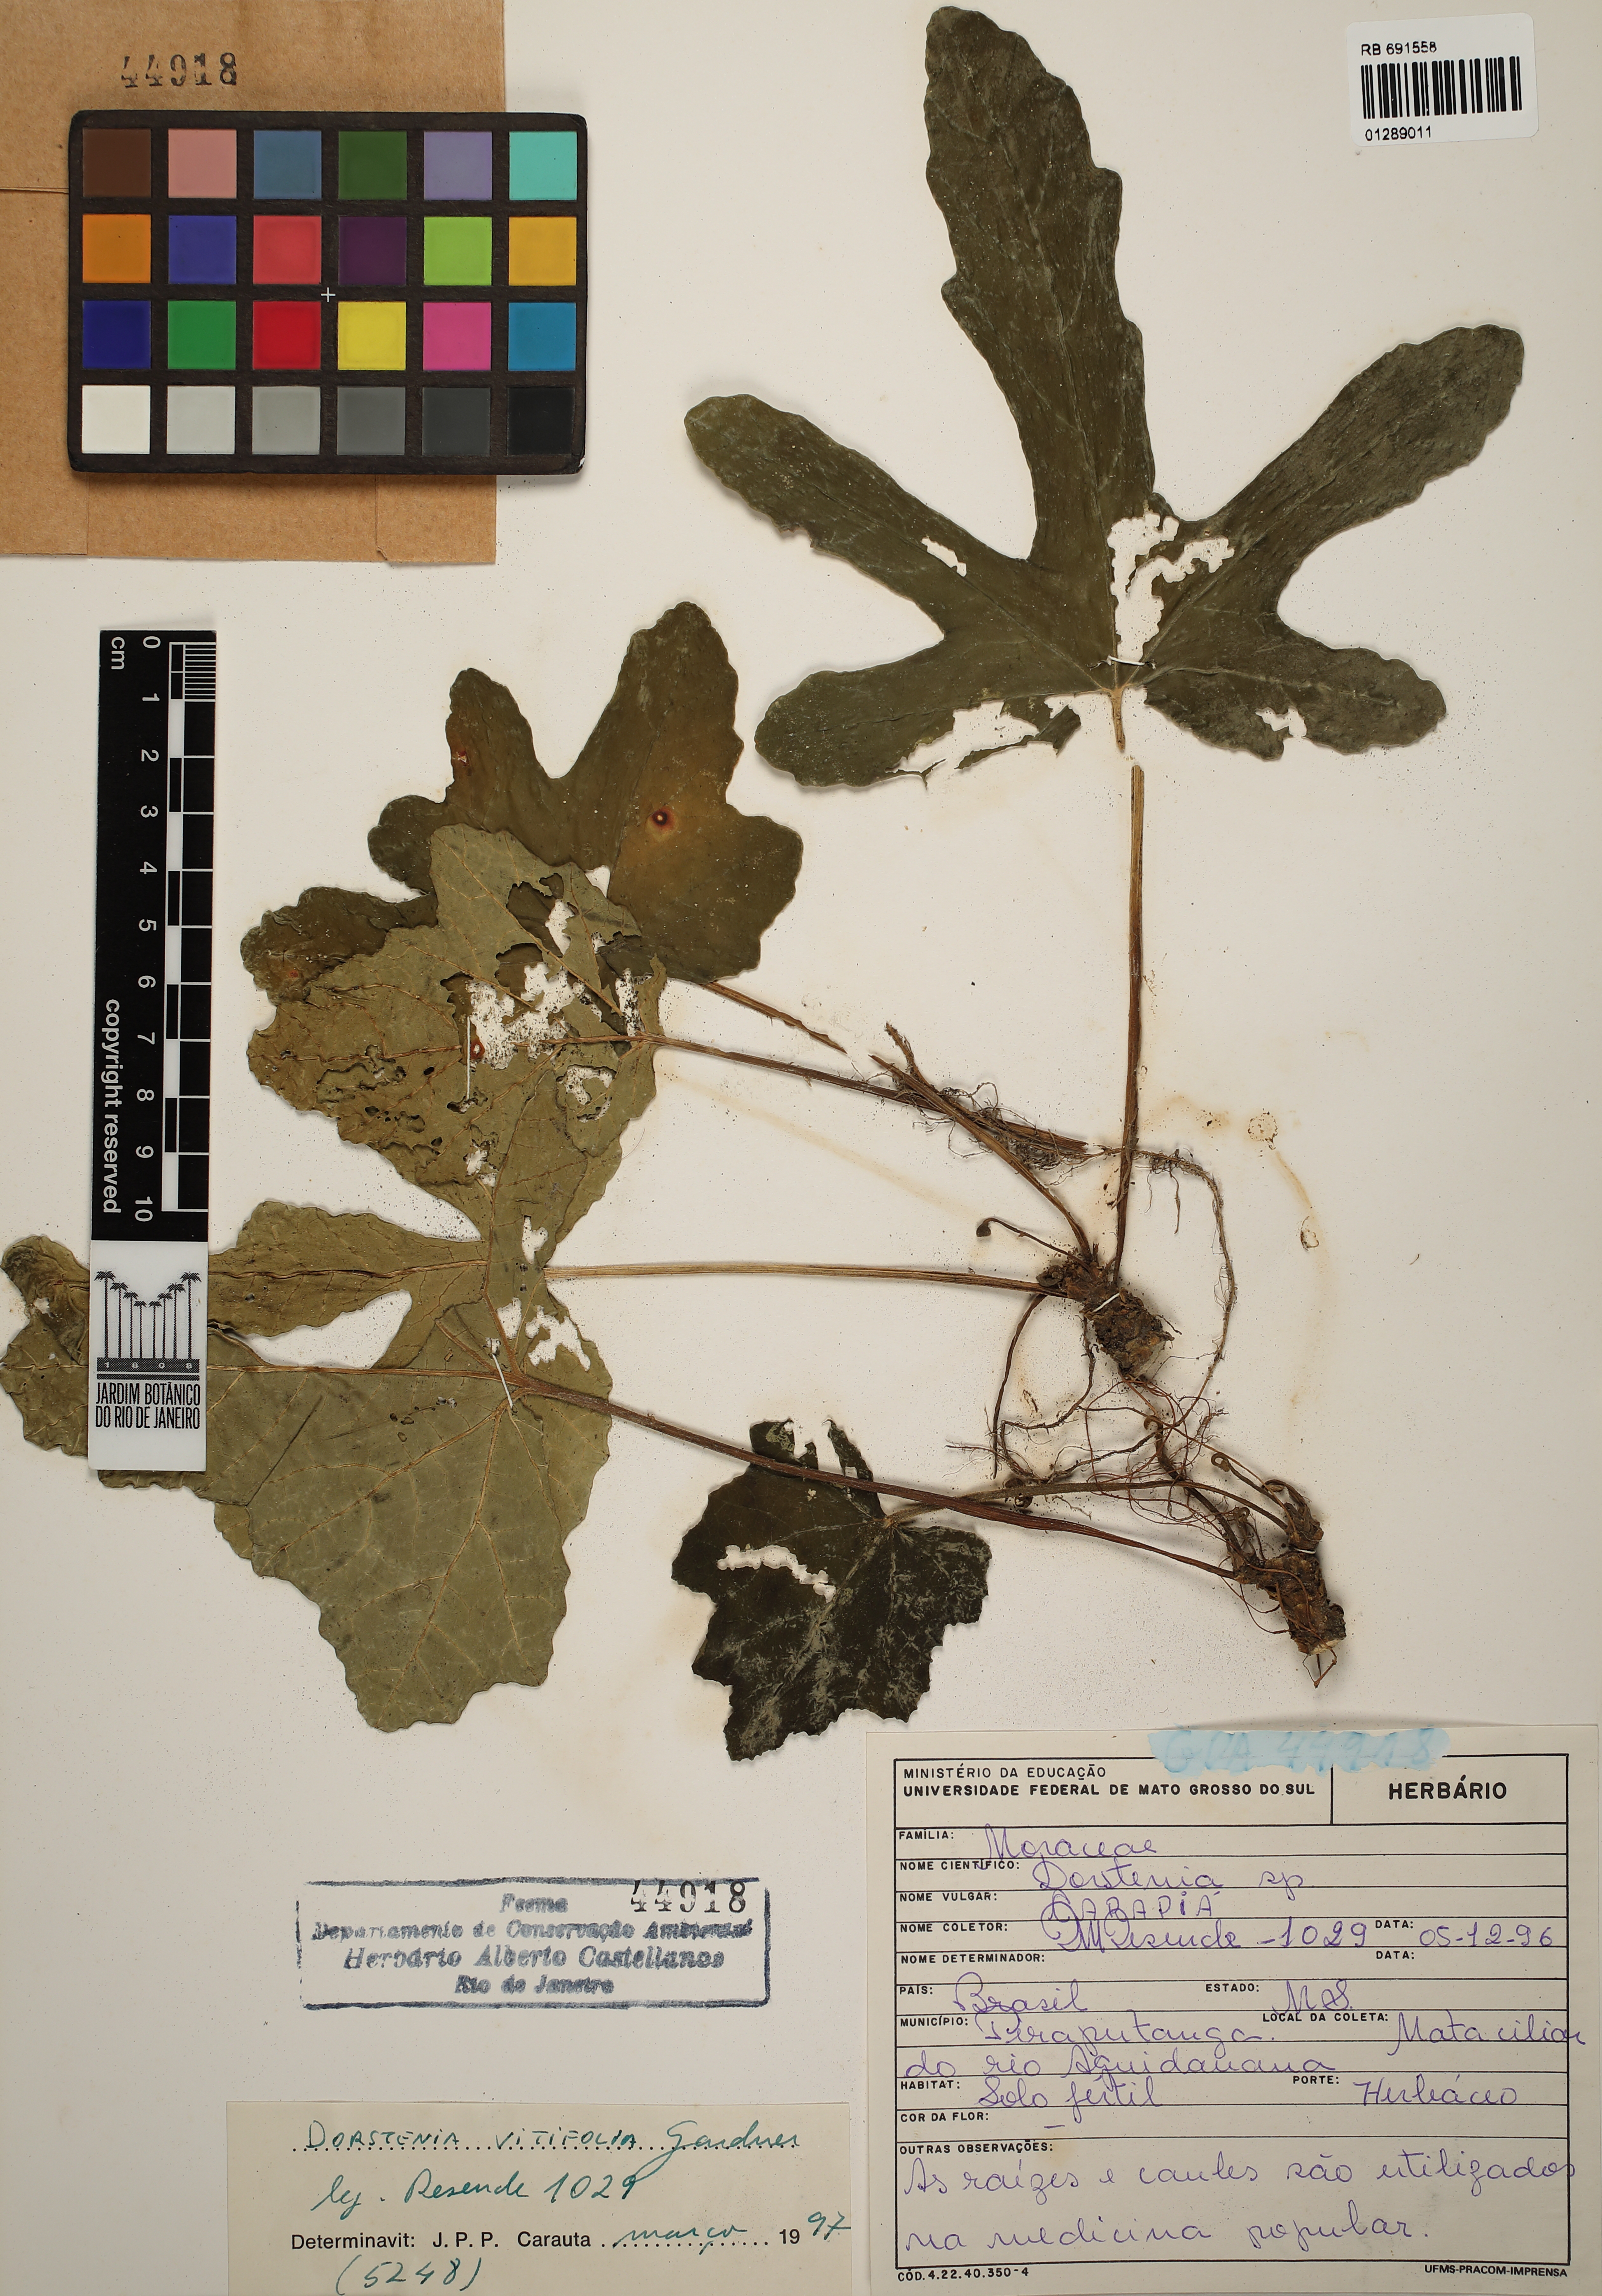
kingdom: Plantae
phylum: Tracheophyta
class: Magnoliopsida
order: Rosales
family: Moraceae
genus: Dorstenia
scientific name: Dorstenia cayapia
